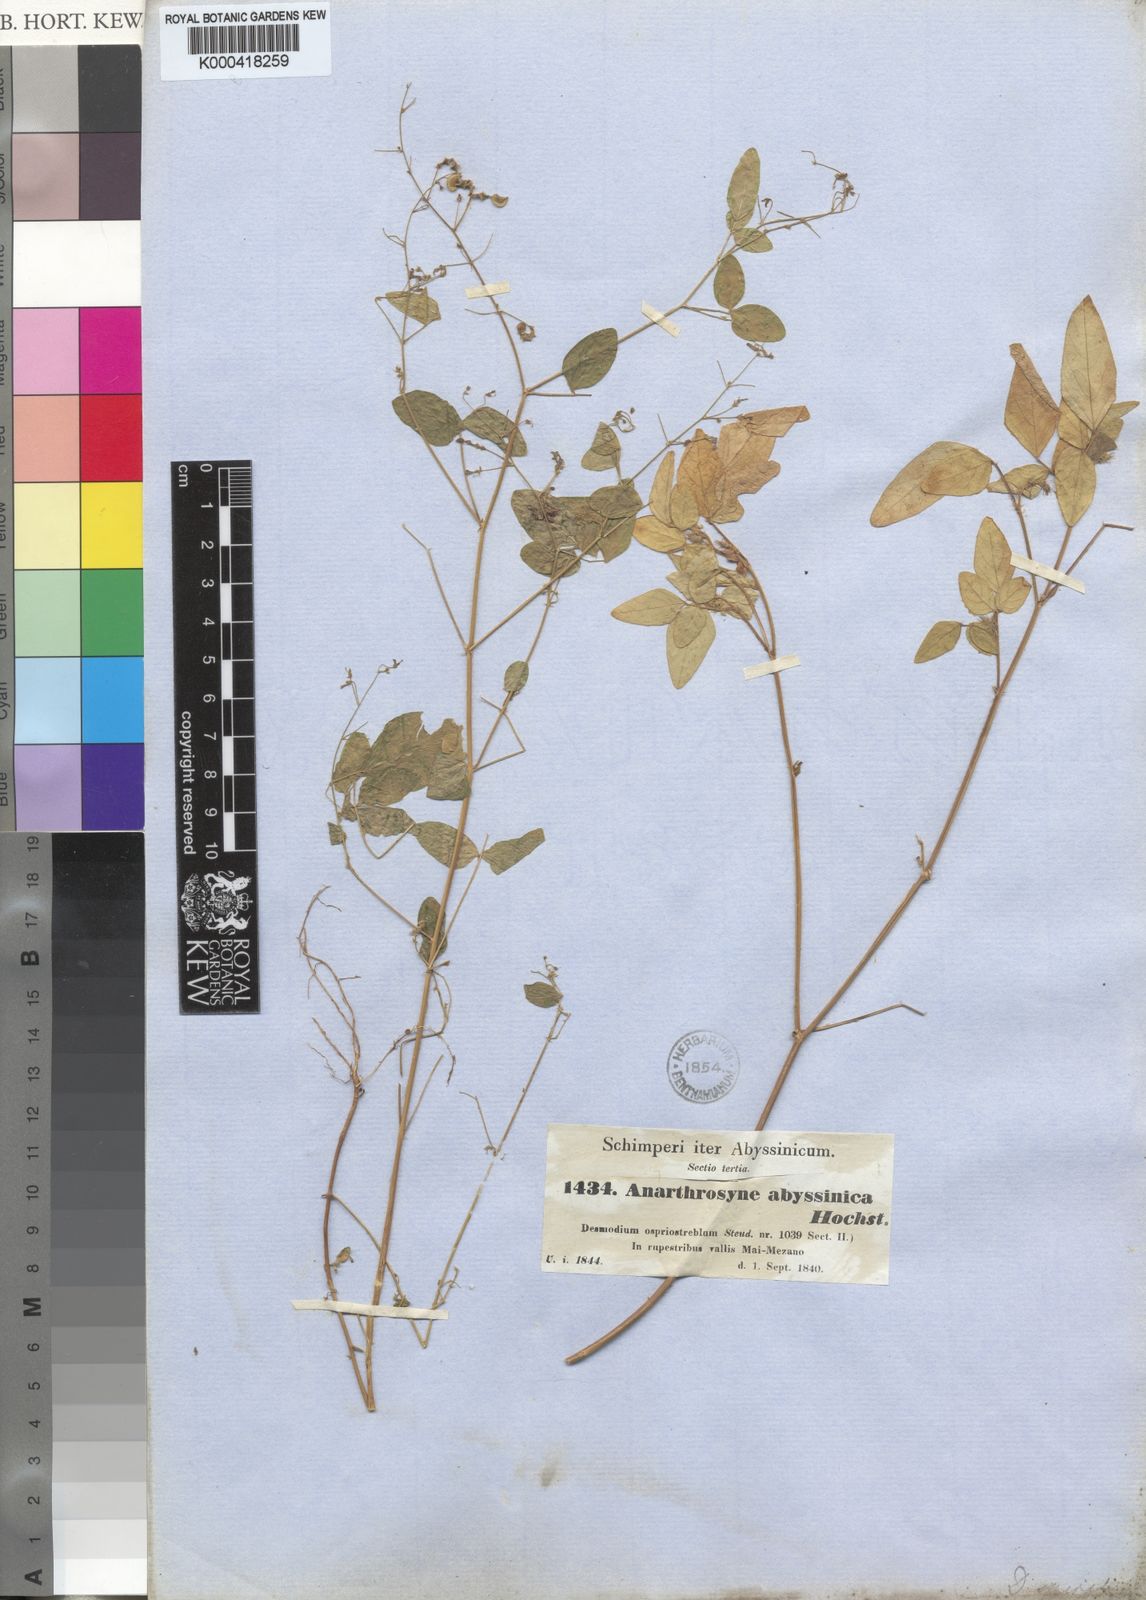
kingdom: Plantae
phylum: Tracheophyta
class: Magnoliopsida
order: Fabales
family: Fabaceae
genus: Desmodium
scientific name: Desmodium
